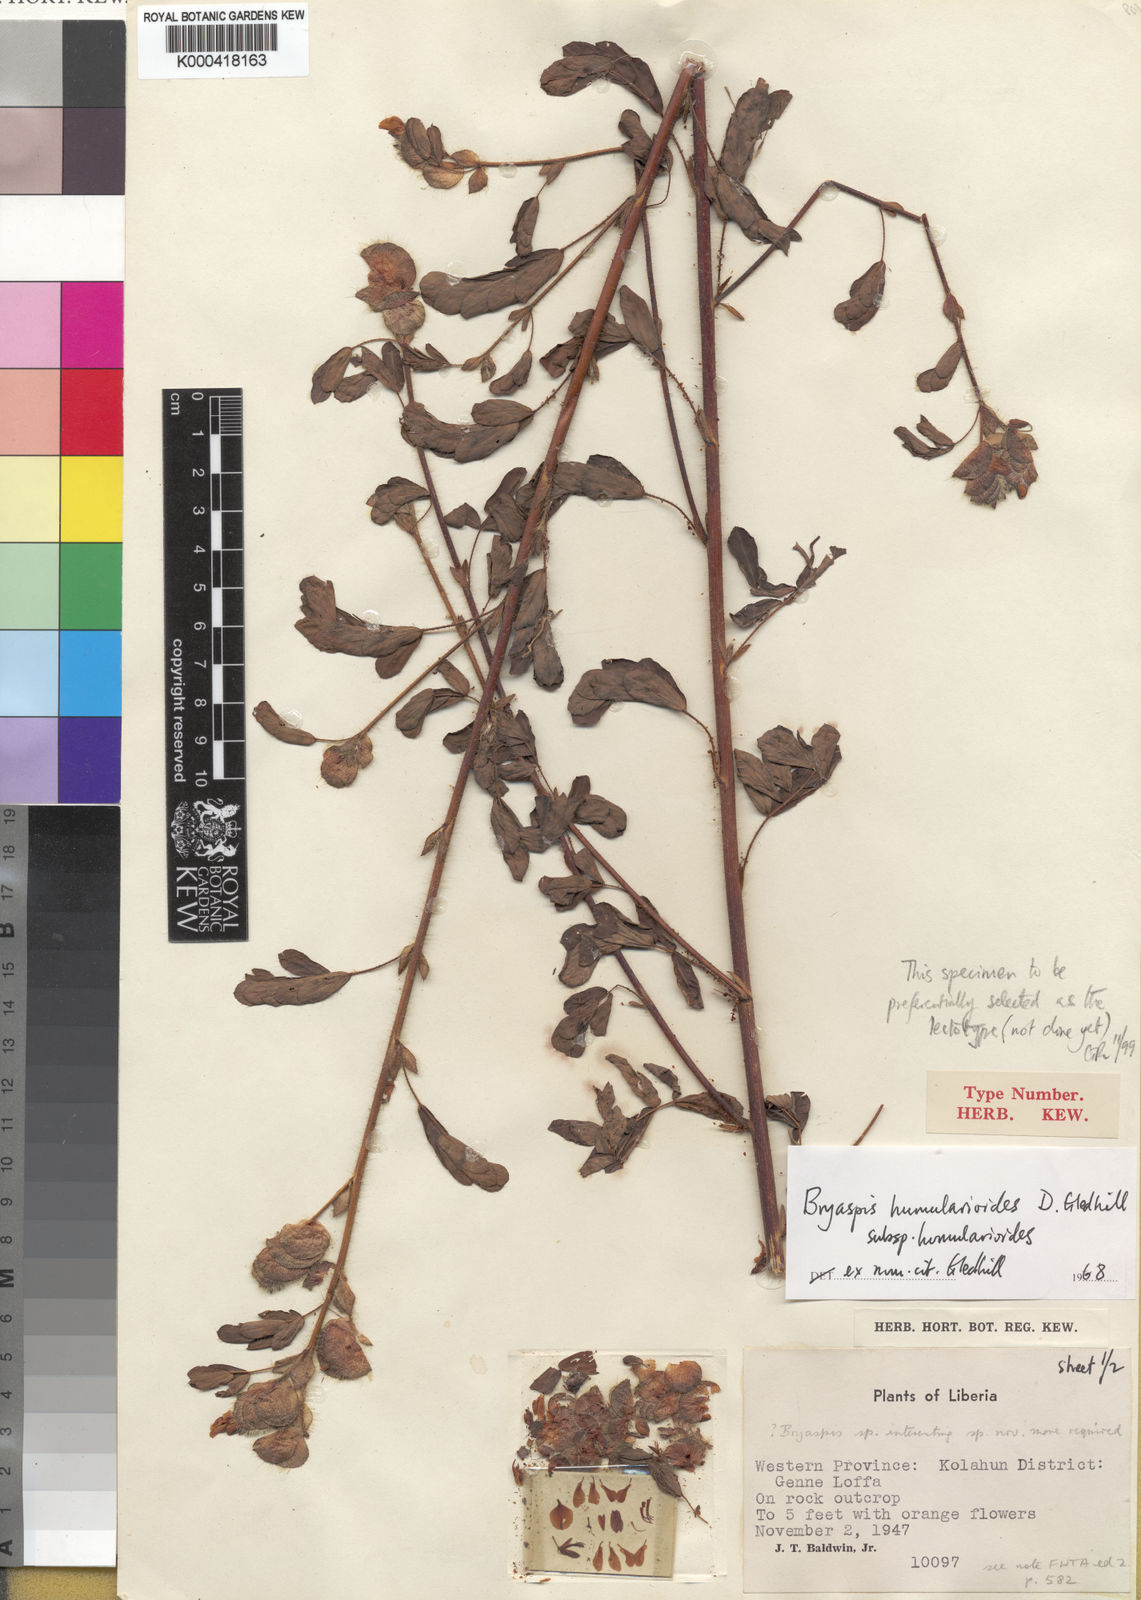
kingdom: Plantae
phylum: Tracheophyta
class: Magnoliopsida
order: Fabales
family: Fabaceae
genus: Bryaspis
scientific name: Bryaspis humularioides
